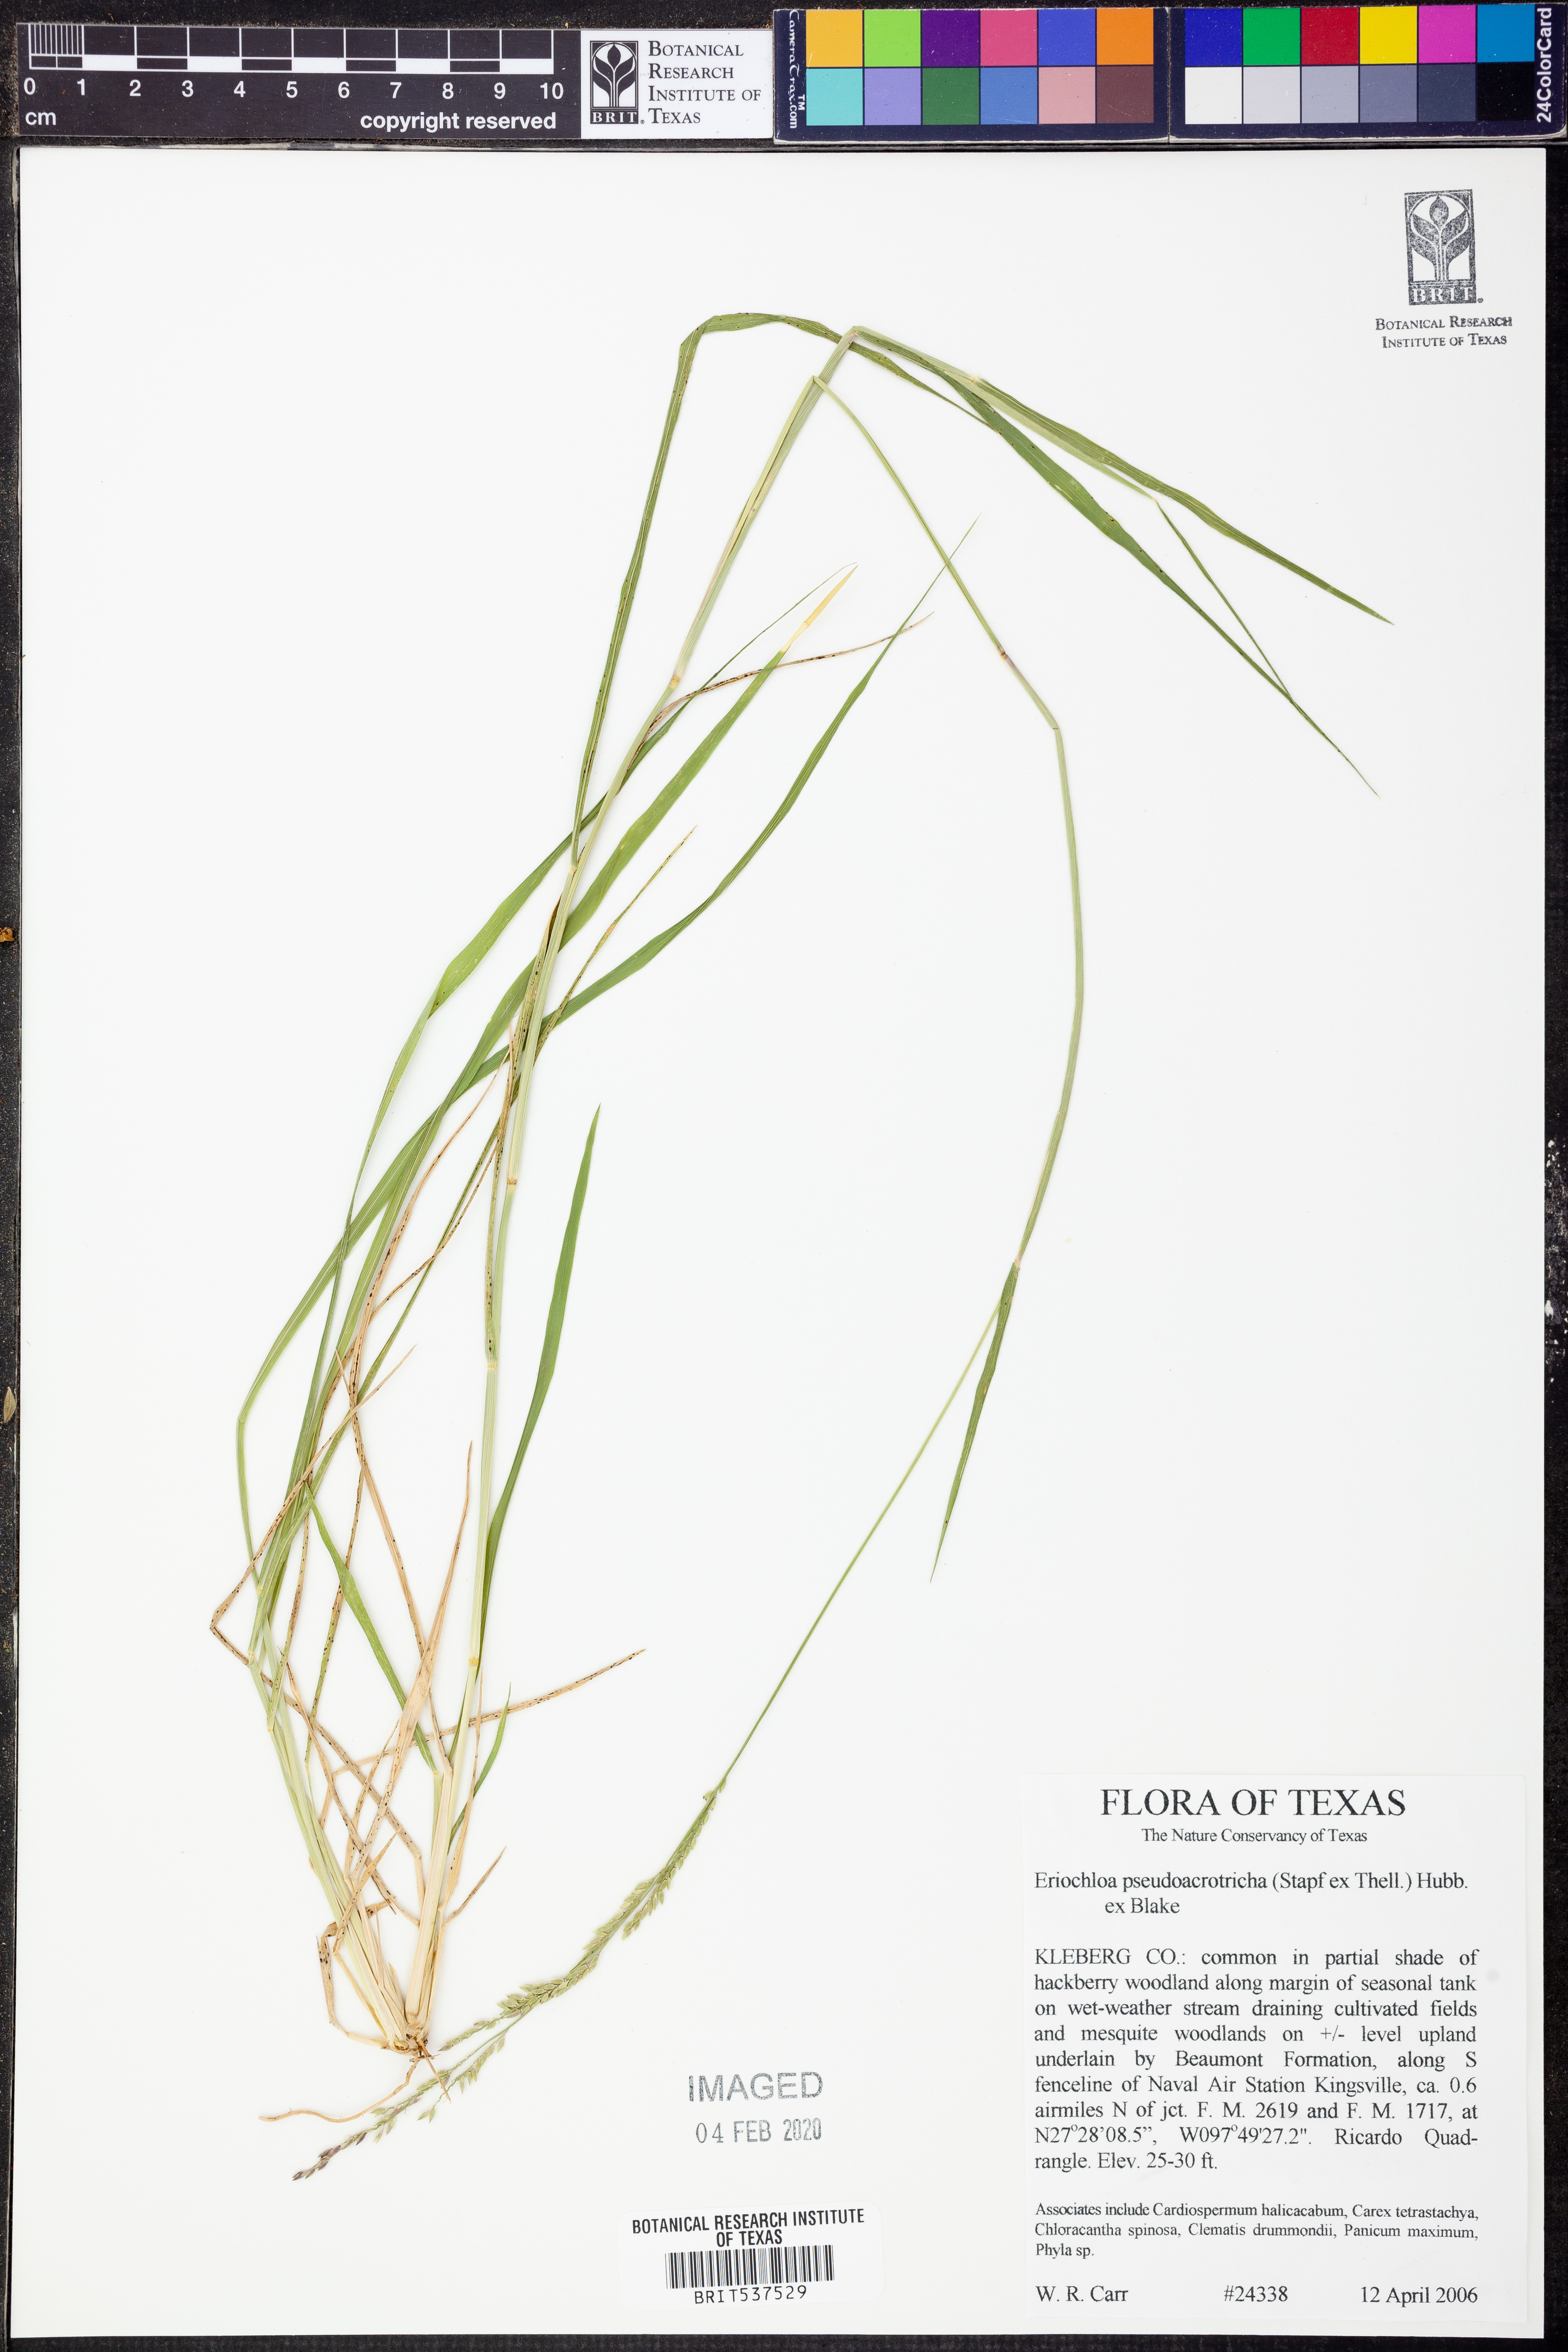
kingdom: Plantae
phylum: Tracheophyta
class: Liliopsida
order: Poales
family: Poaceae
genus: Eriochloa
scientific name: Eriochloa pseudoacrotricha
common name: Perennial cup-grass
